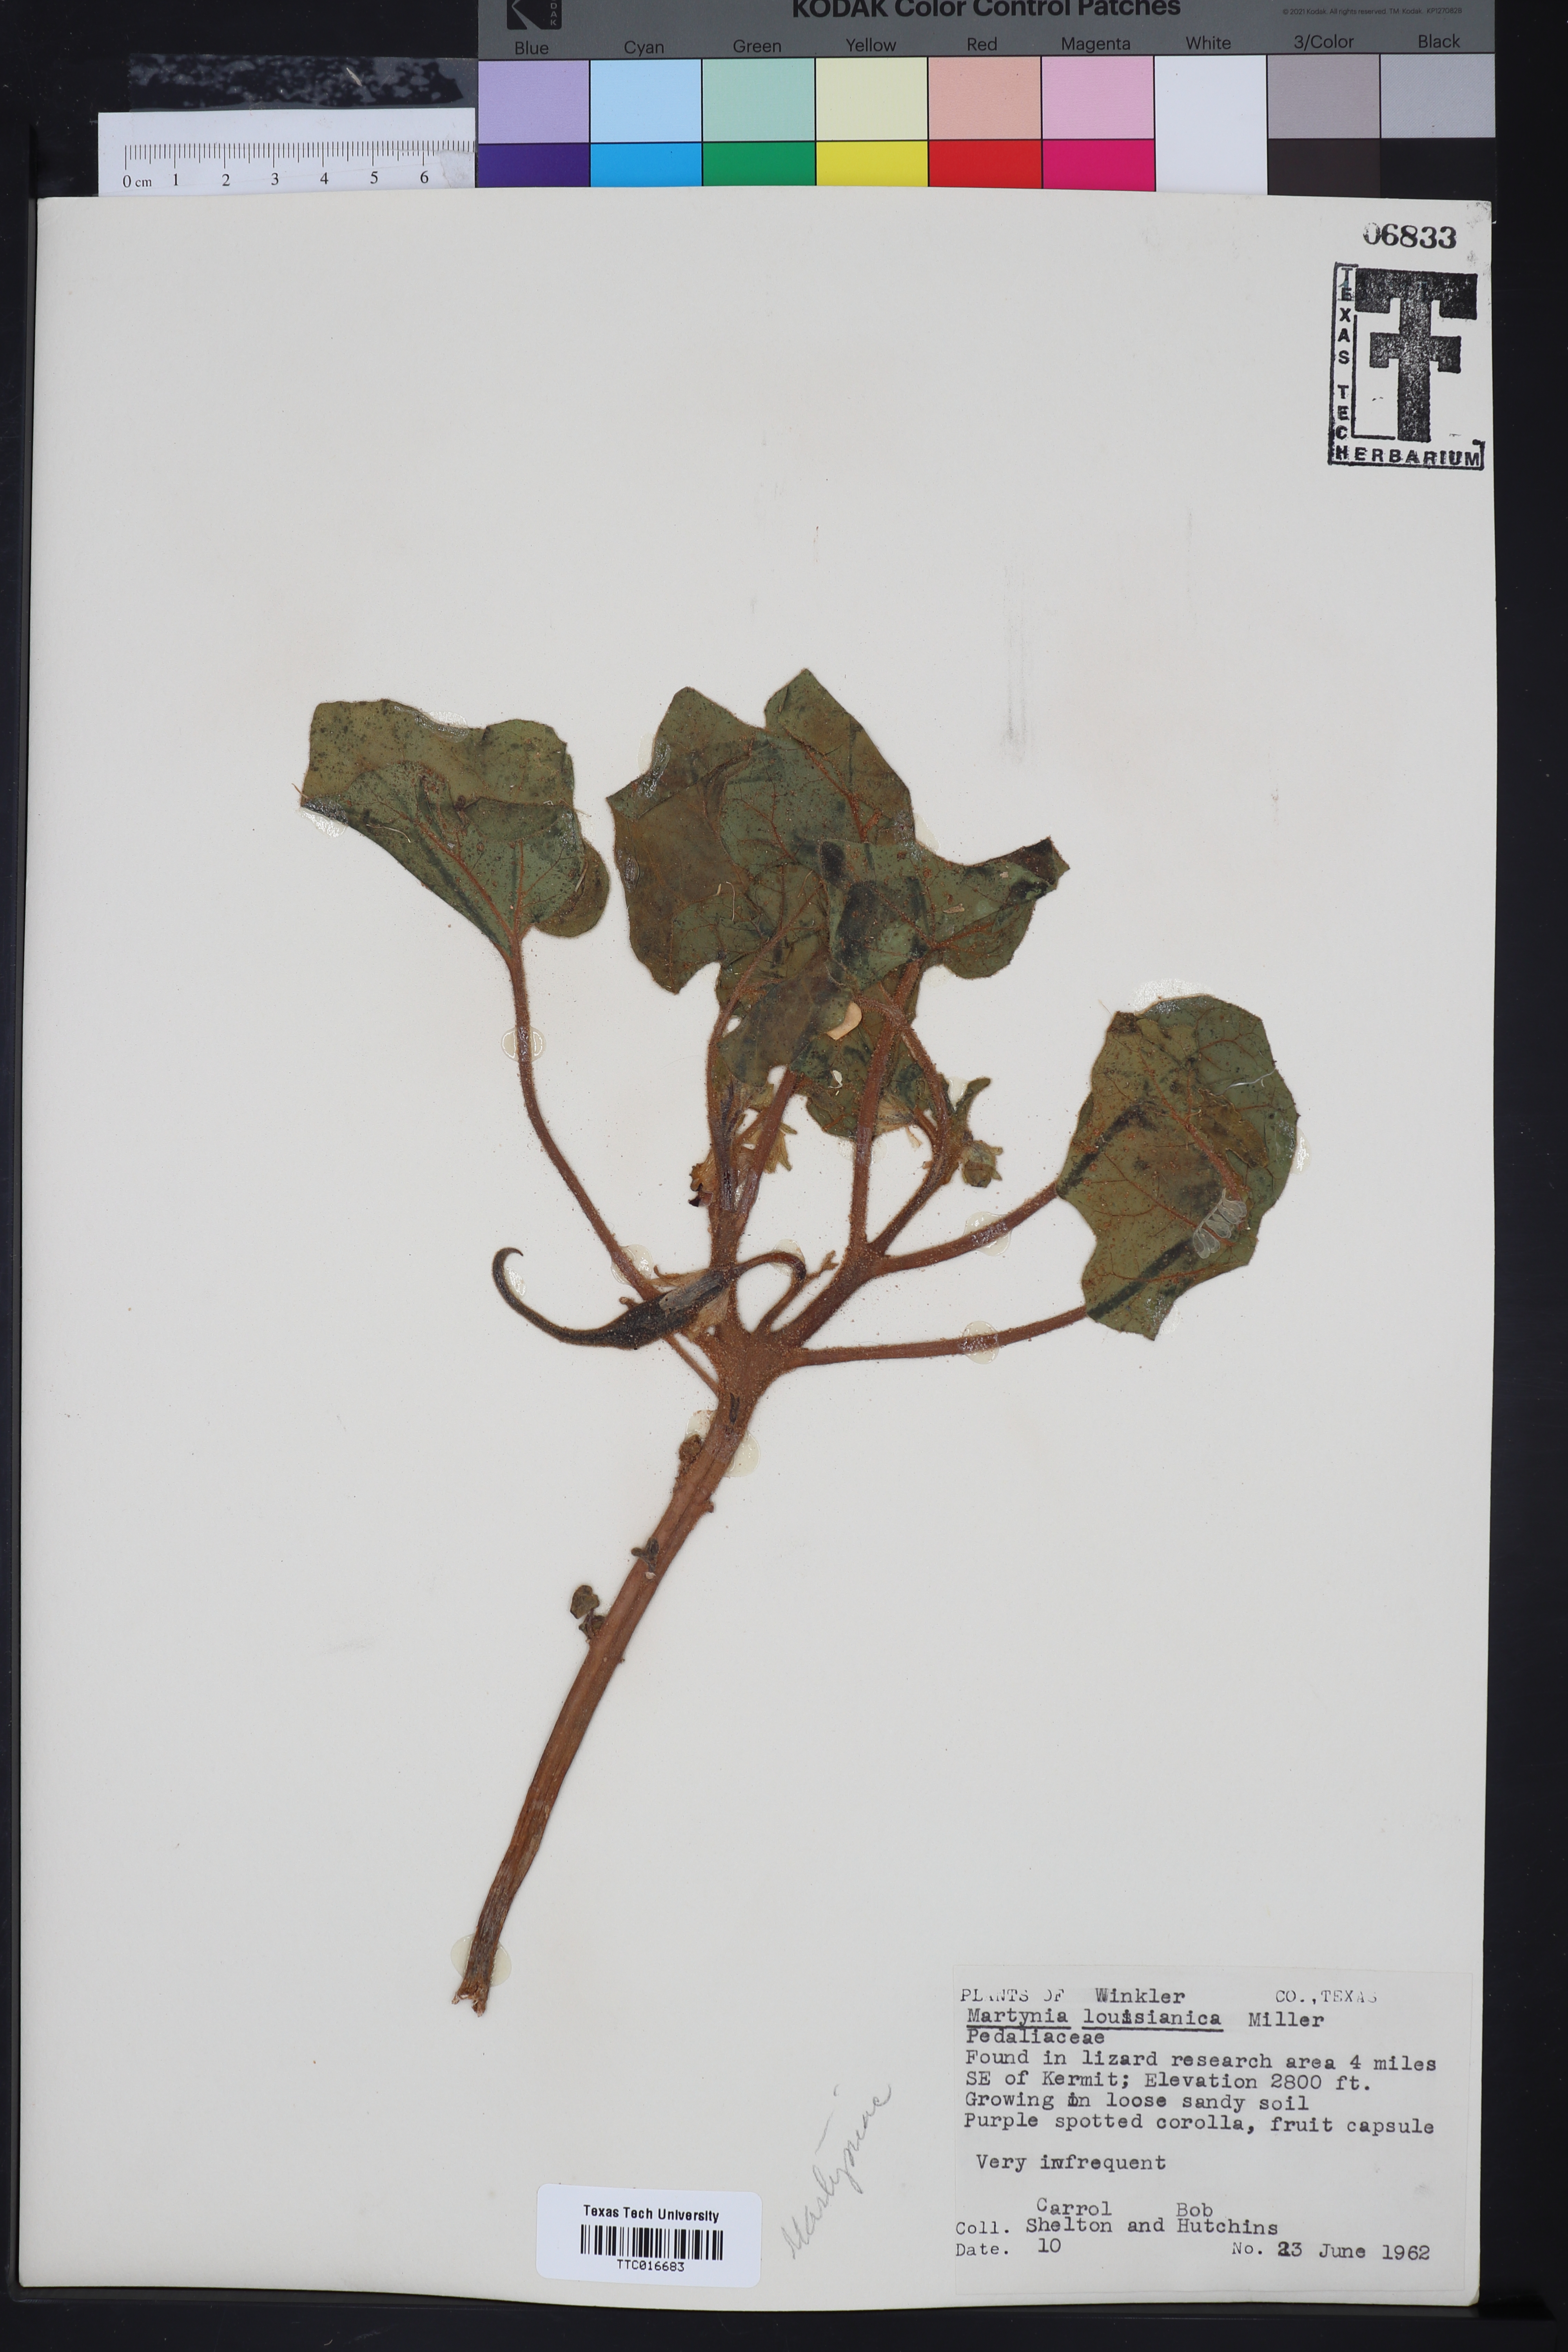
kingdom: Plantae
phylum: Tracheophyta
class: Magnoliopsida
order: Lamiales
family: Martyniaceae
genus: Proboscidea
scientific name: Proboscidea louisianica
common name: Elephant tusks
